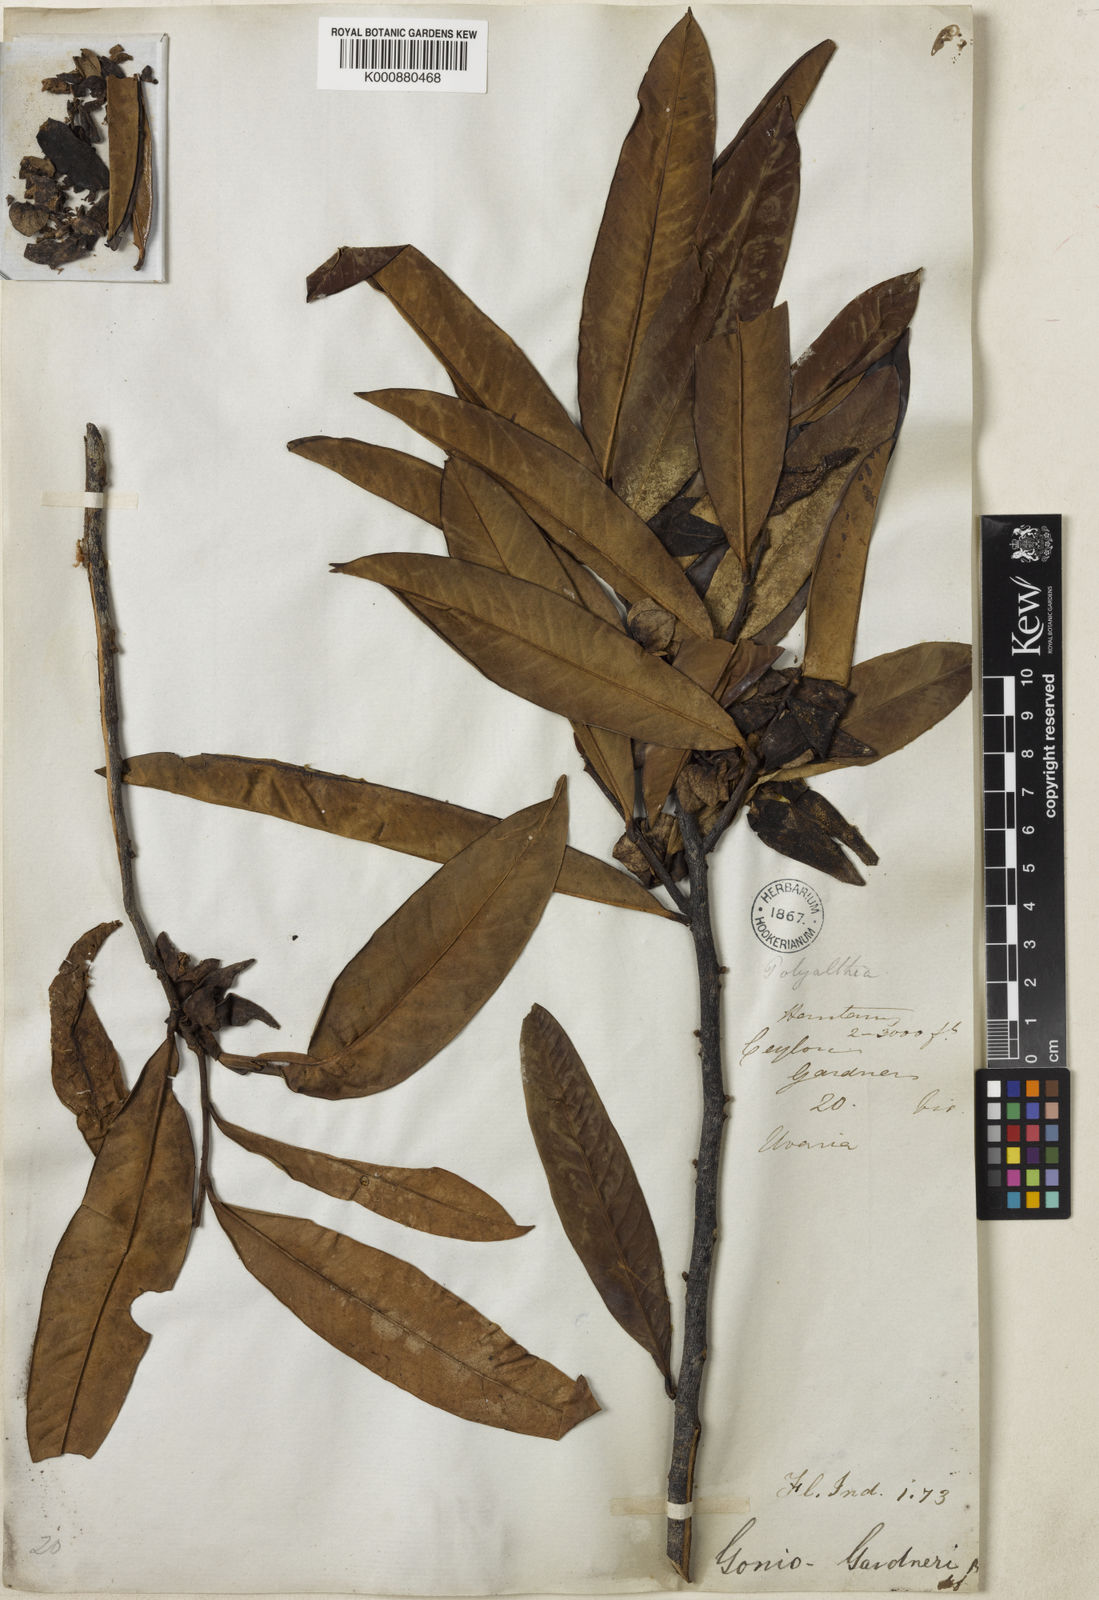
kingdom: Plantae
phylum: Tracheophyta
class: Magnoliopsida
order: Magnoliales
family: Annonaceae
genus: Goniothalamus
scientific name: Goniothalamus gardneri
